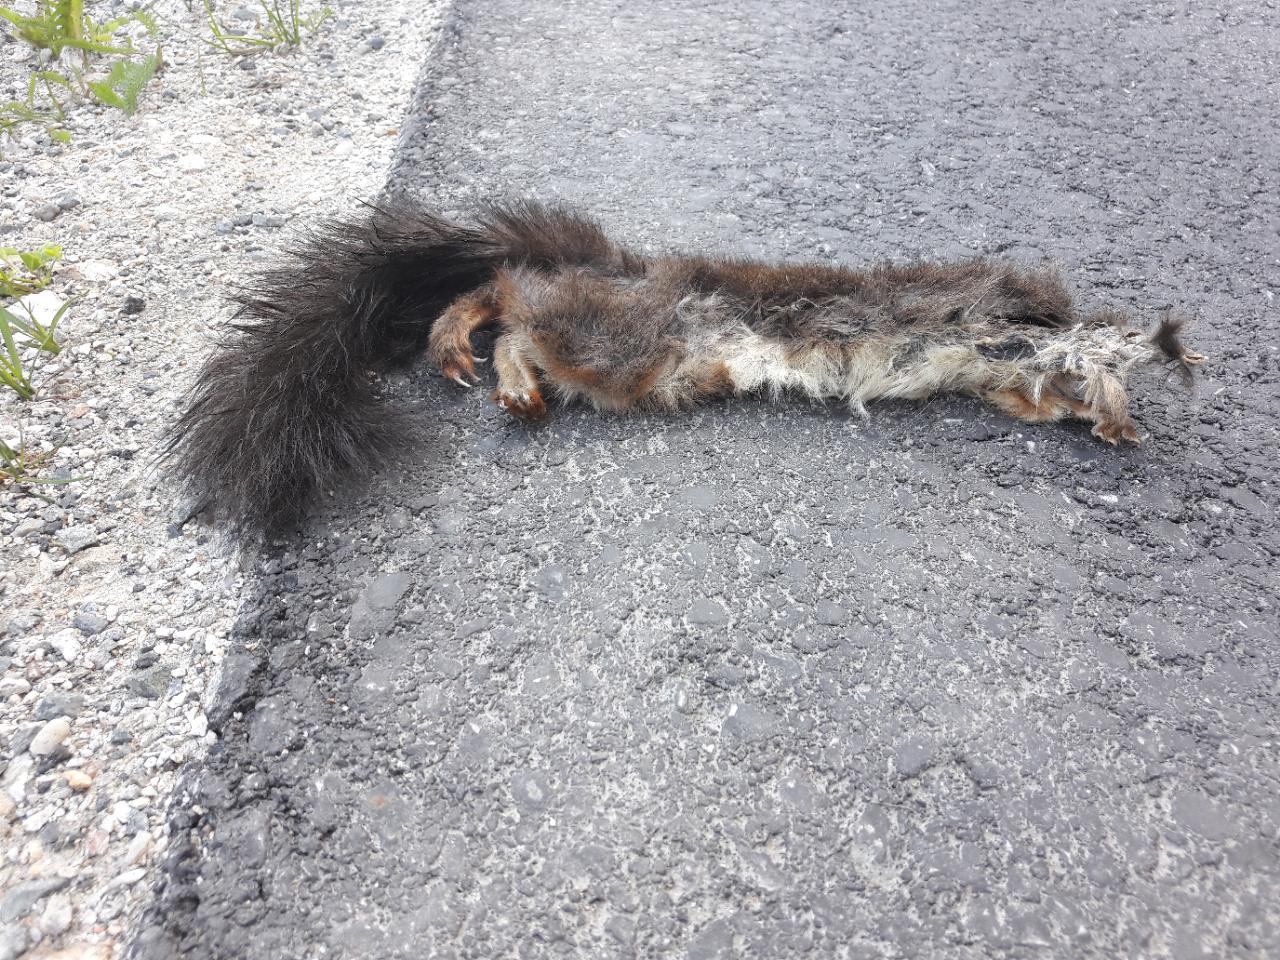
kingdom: Animalia
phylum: Chordata
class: Mammalia
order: Rodentia
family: Sciuridae
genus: Sciurus
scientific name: Sciurus vulgaris
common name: Eurasian red squirrel
